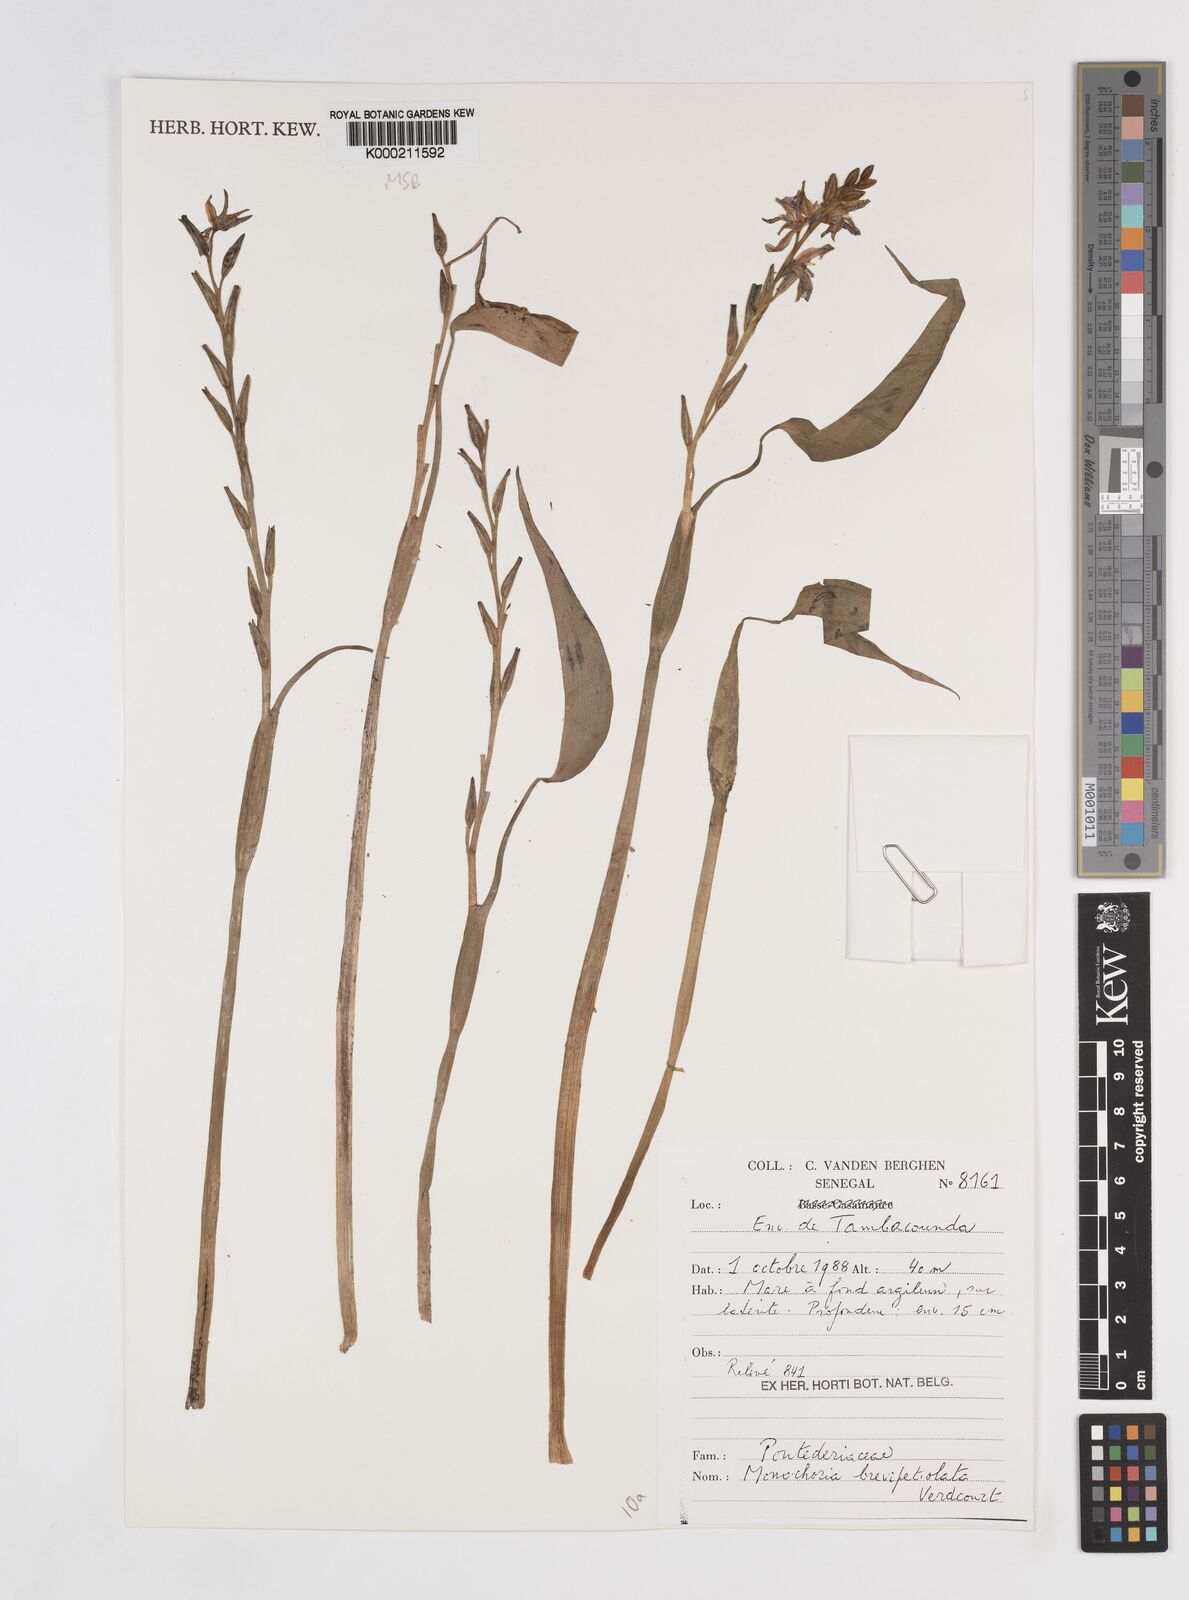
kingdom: Plantae
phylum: Tracheophyta
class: Liliopsida
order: Commelinales
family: Pontederiaceae
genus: Pontederia
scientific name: Pontederia brevipetiolata
